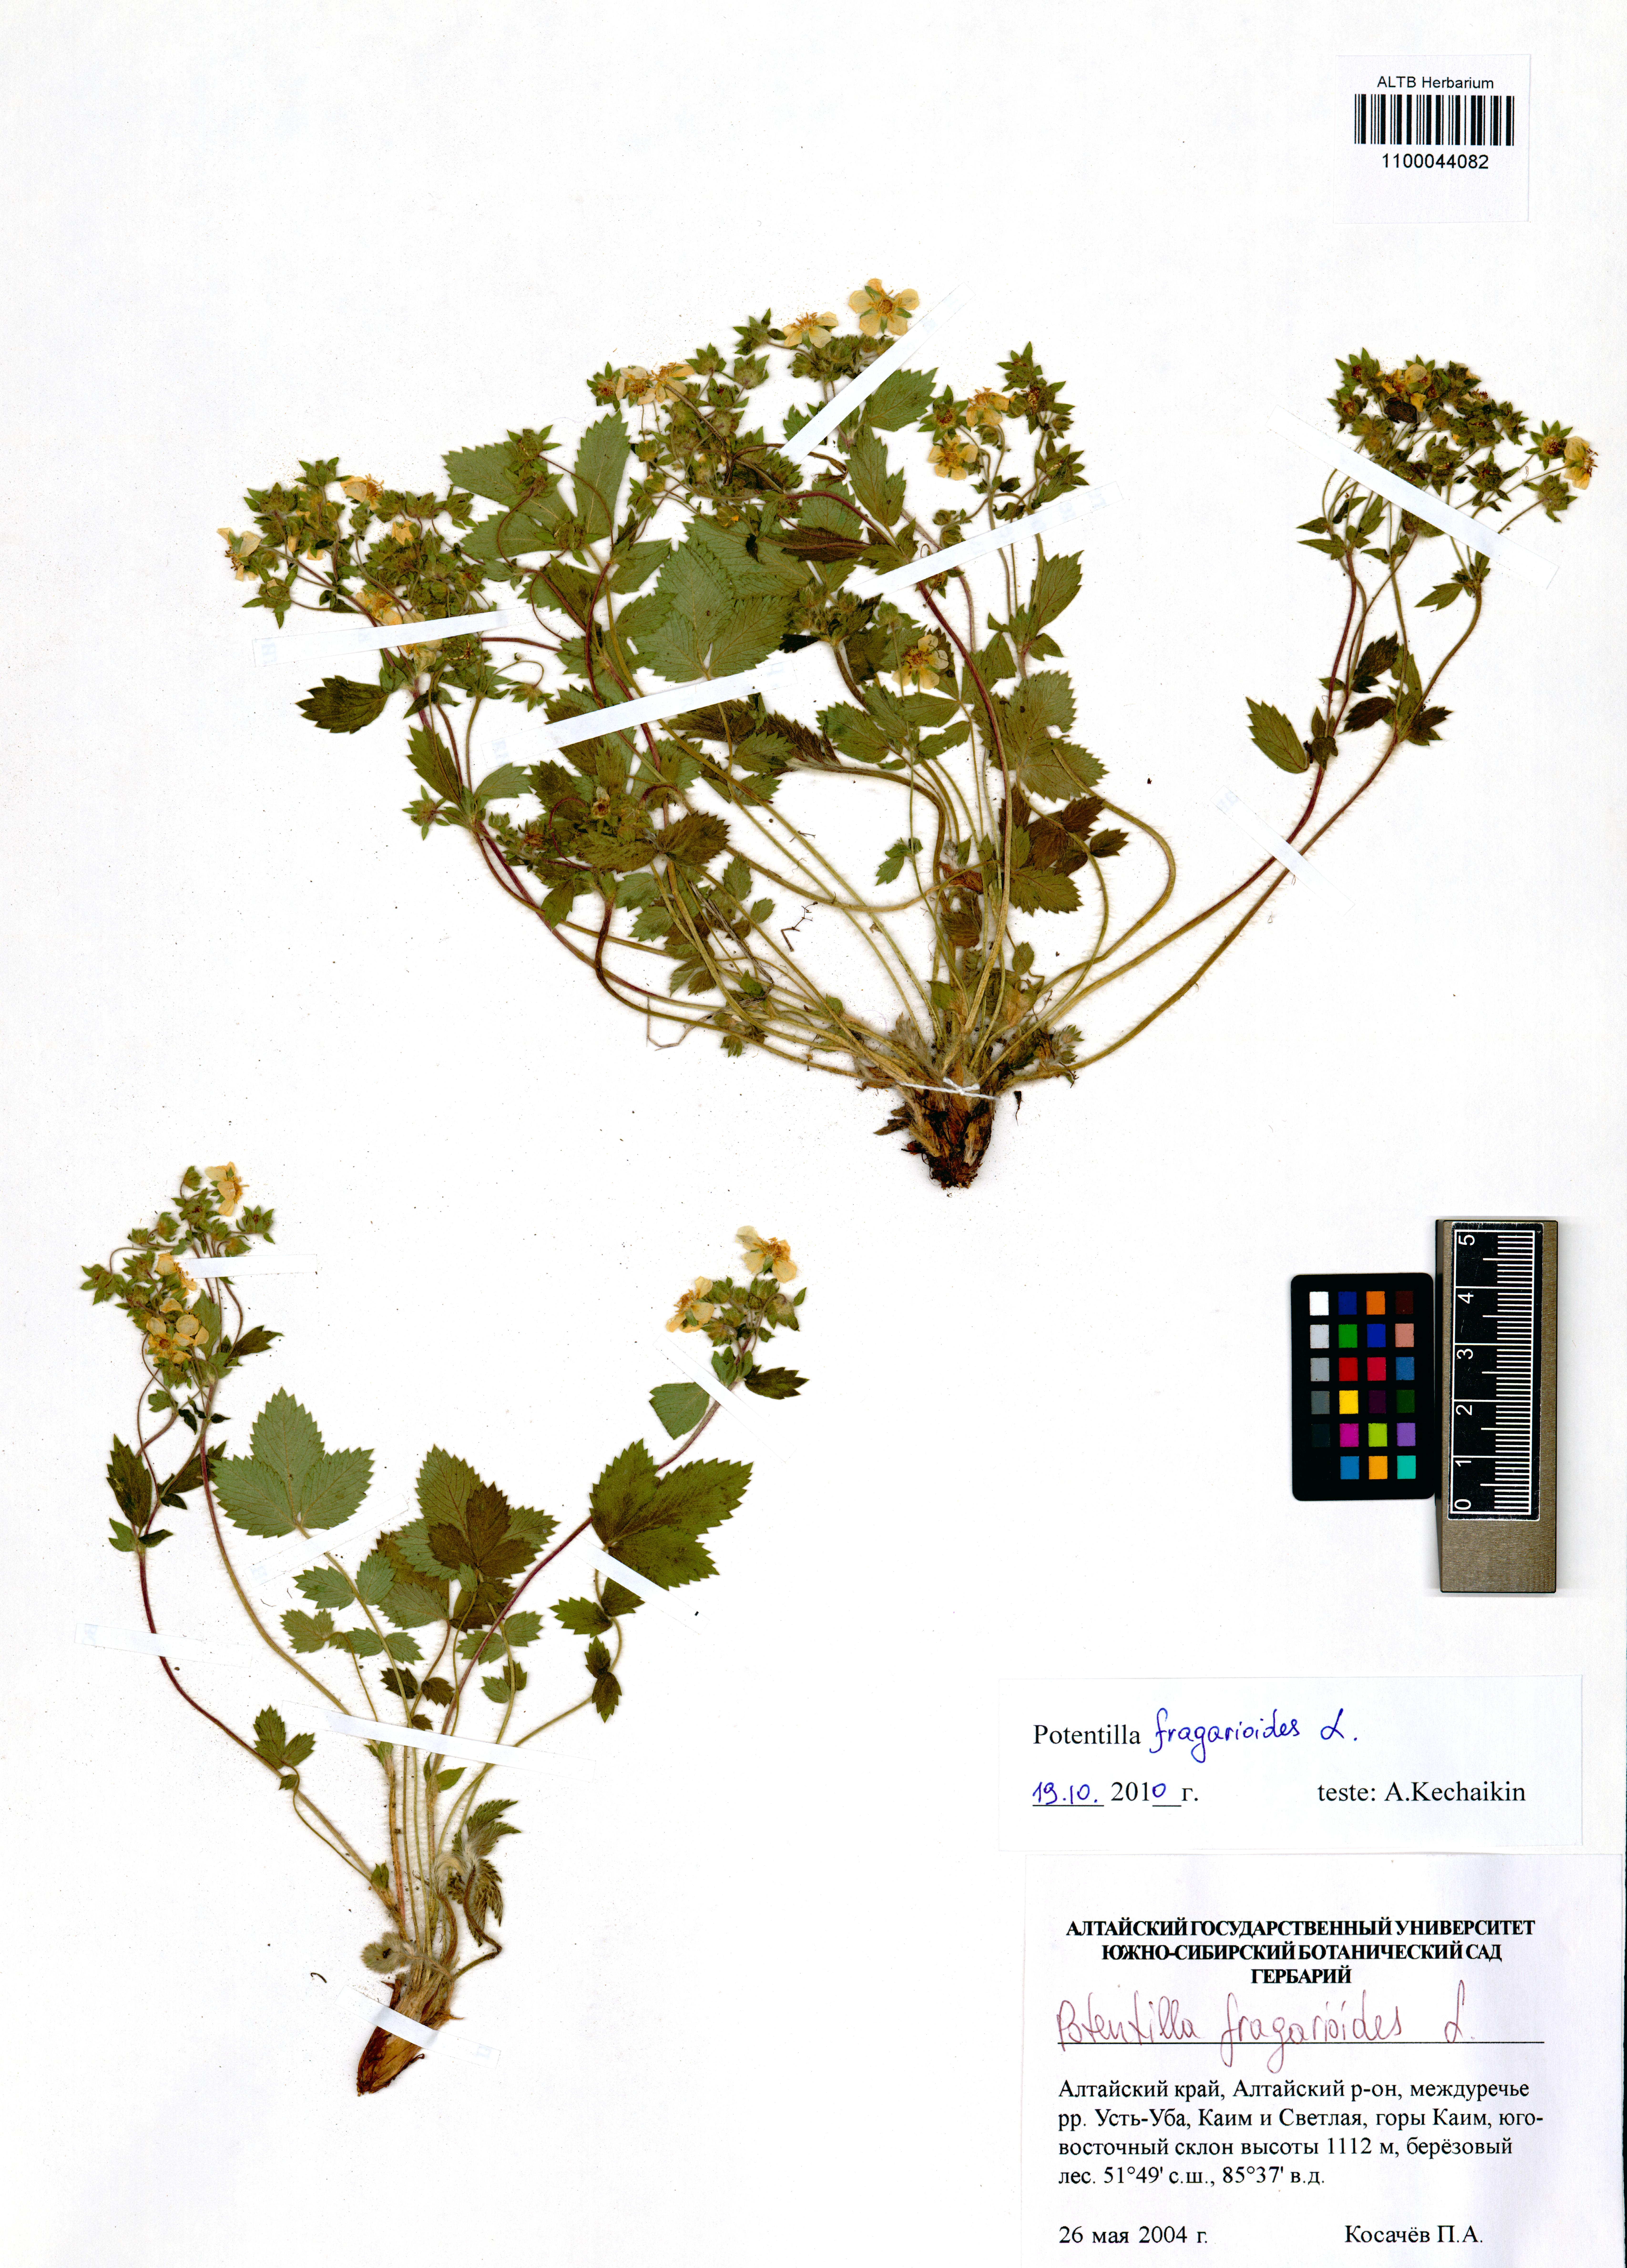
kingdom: Plantae
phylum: Tracheophyta
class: Magnoliopsida
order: Rosales
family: Rosaceae
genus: Potentilla
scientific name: Potentilla fragarioides
